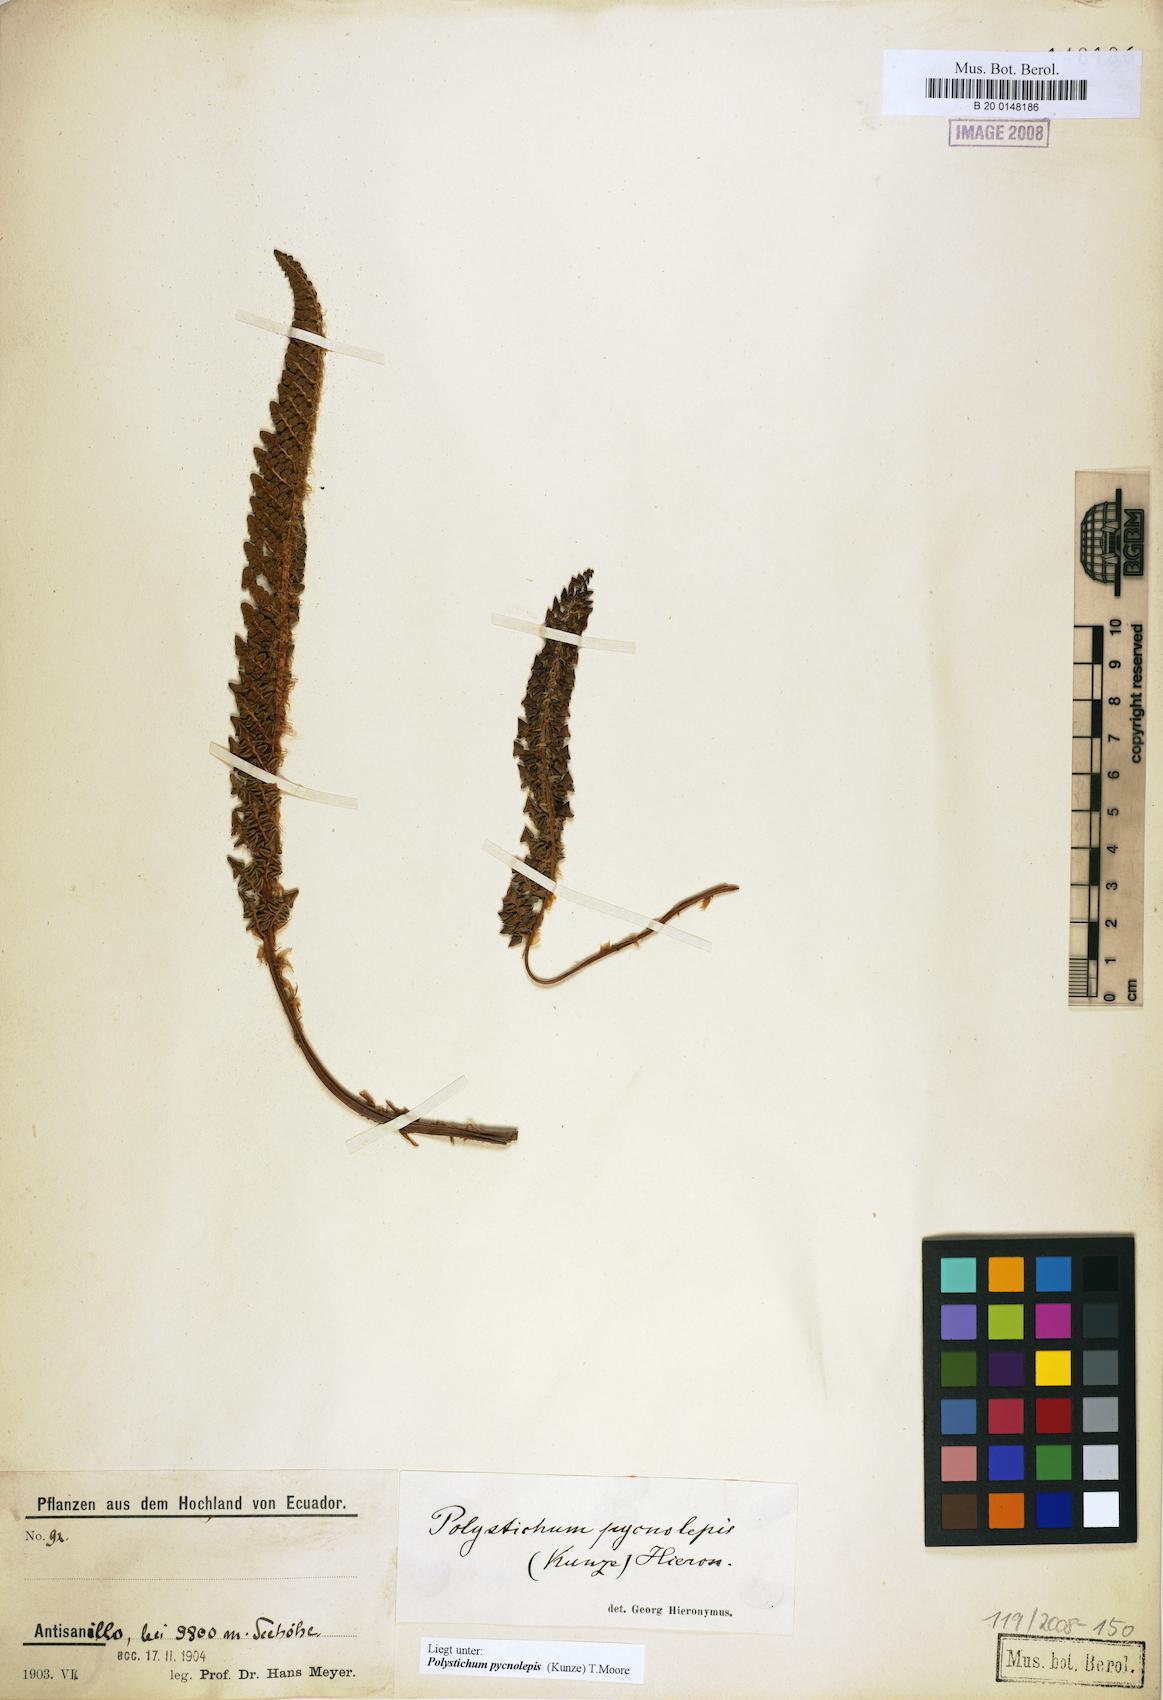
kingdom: Plantae
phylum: Tracheophyta
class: Polypodiopsida
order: Polypodiales
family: Dryopteridaceae
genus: Polystichum
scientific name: Polystichum pycnolepis
